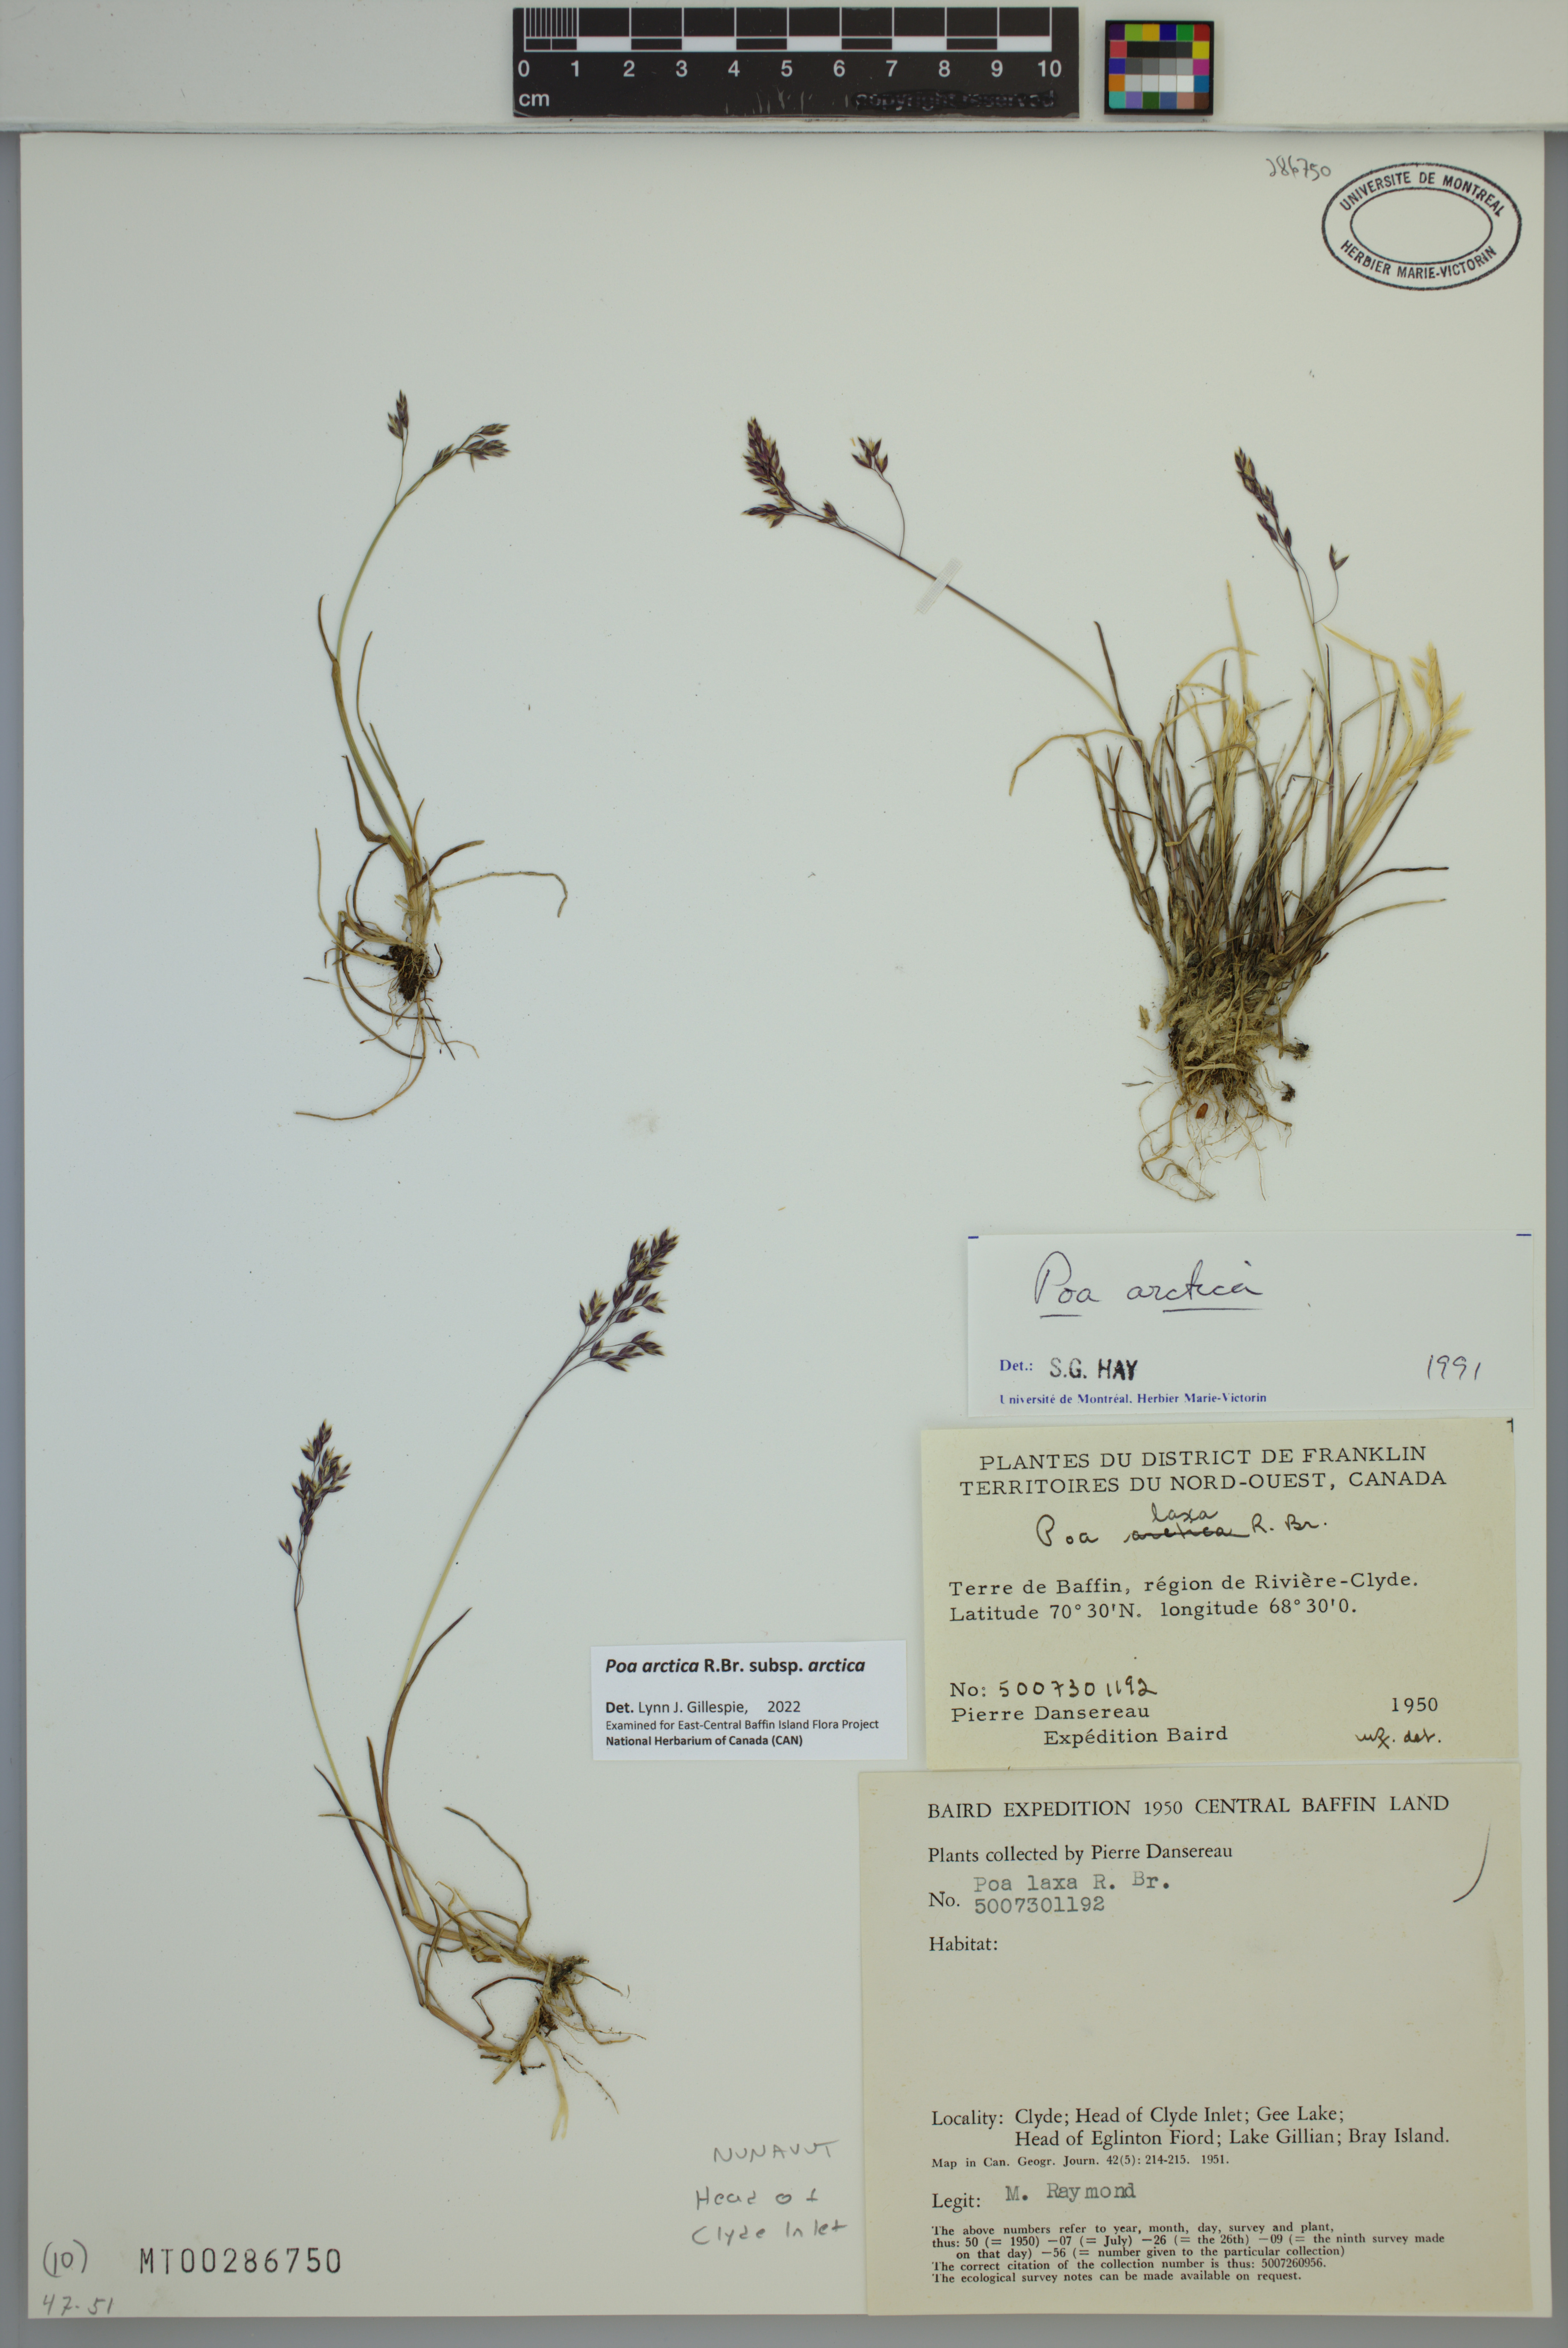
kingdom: Plantae
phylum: Tracheophyta
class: Liliopsida
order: Poales
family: Poaceae
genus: Poa
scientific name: Poa arctica
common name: Arctic bluegrass
